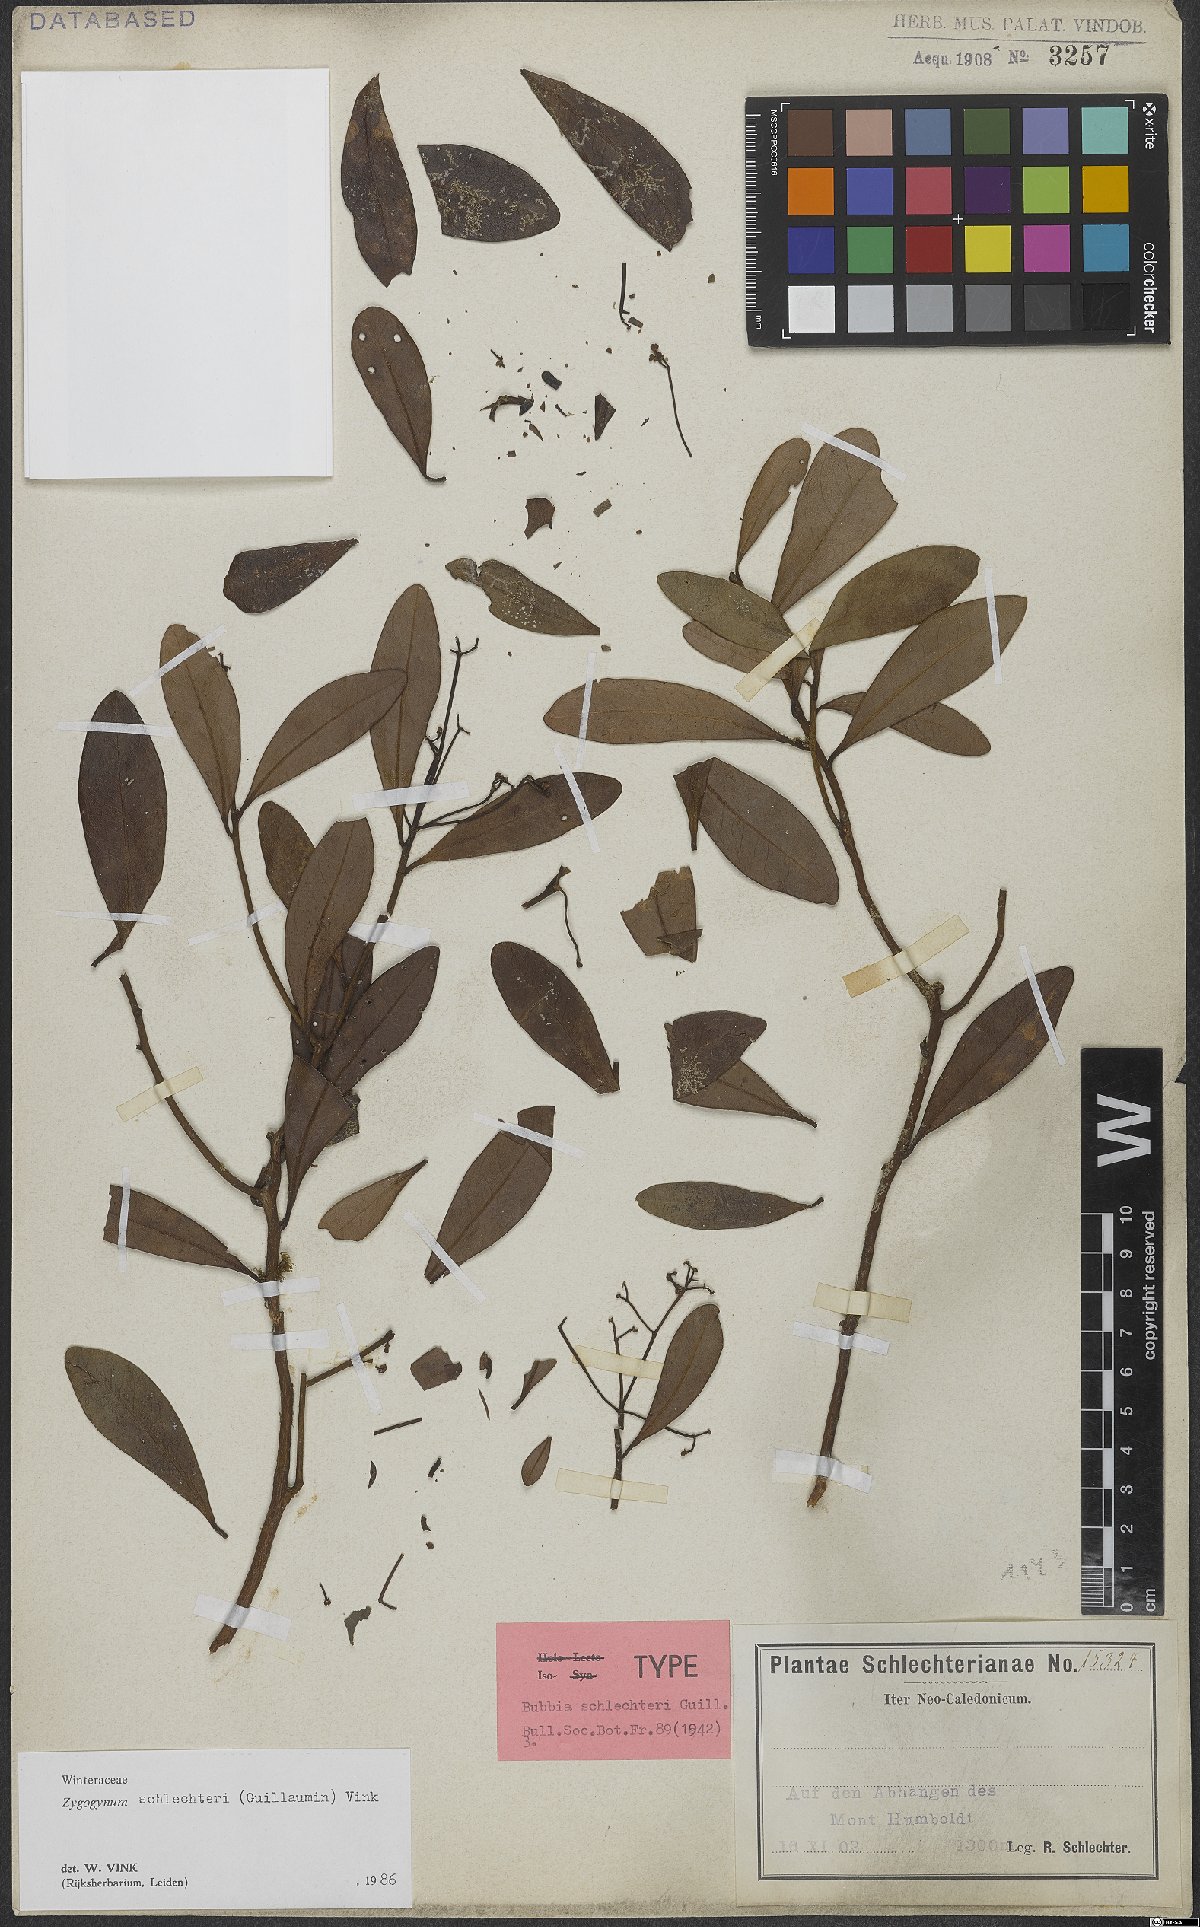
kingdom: Plantae
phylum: Tracheophyta
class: Magnoliopsida
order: Canellales
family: Winteraceae
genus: Zygogynum
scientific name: Zygogynum schlechteri
